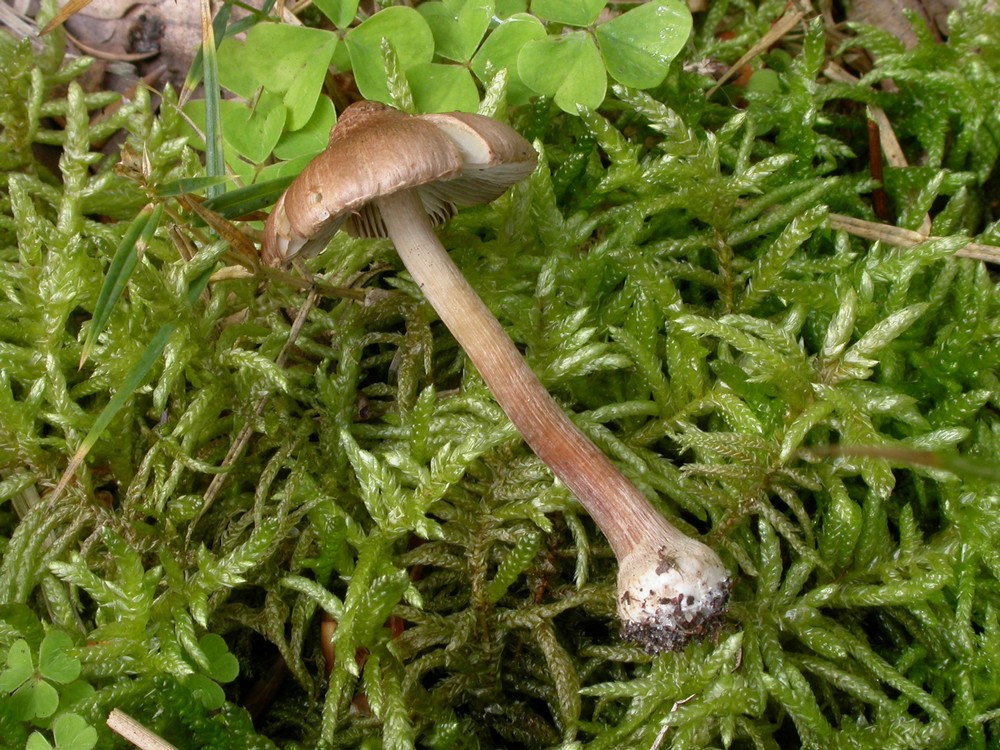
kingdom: Fungi
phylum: Basidiomycota
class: Agaricomycetes
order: Agaricales
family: Inocybaceae
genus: Inocybe
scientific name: Inocybe napipes
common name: roeknoldet trævlhat
